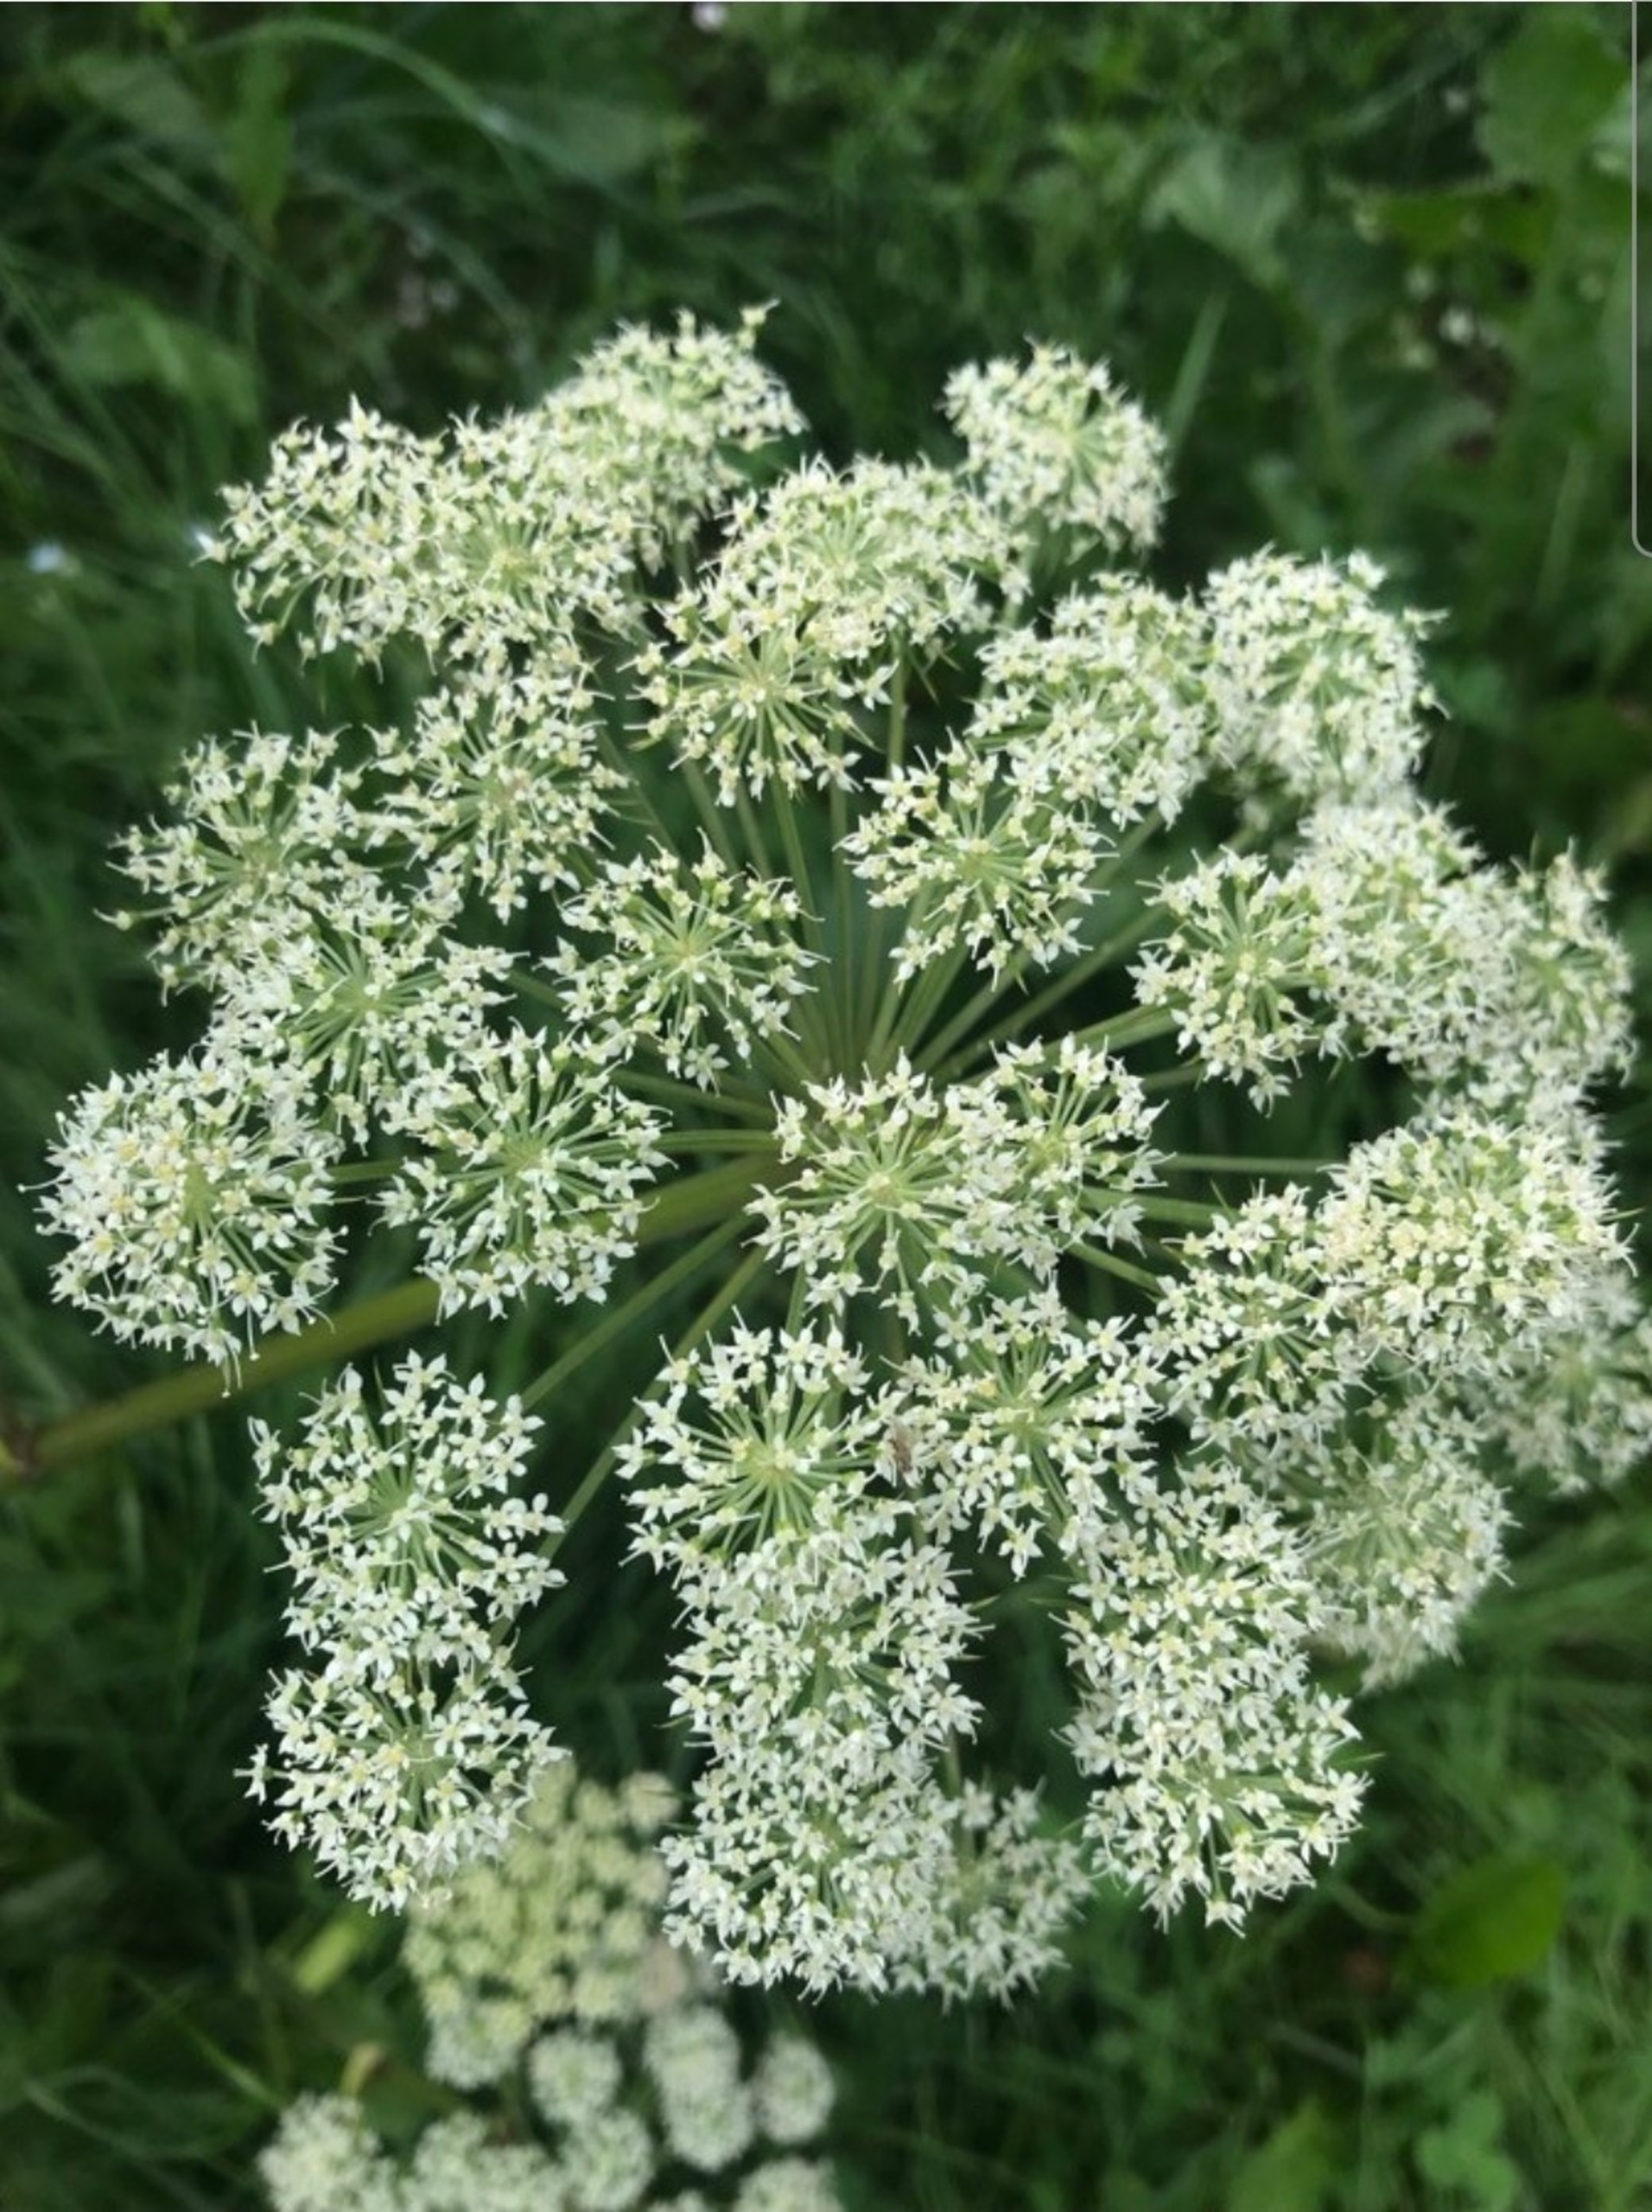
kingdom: Plantae
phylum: Tracheophyta
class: Magnoliopsida
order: Apiales
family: Apiaceae
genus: Angelica
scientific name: Angelica sylvestris
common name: Angelik
